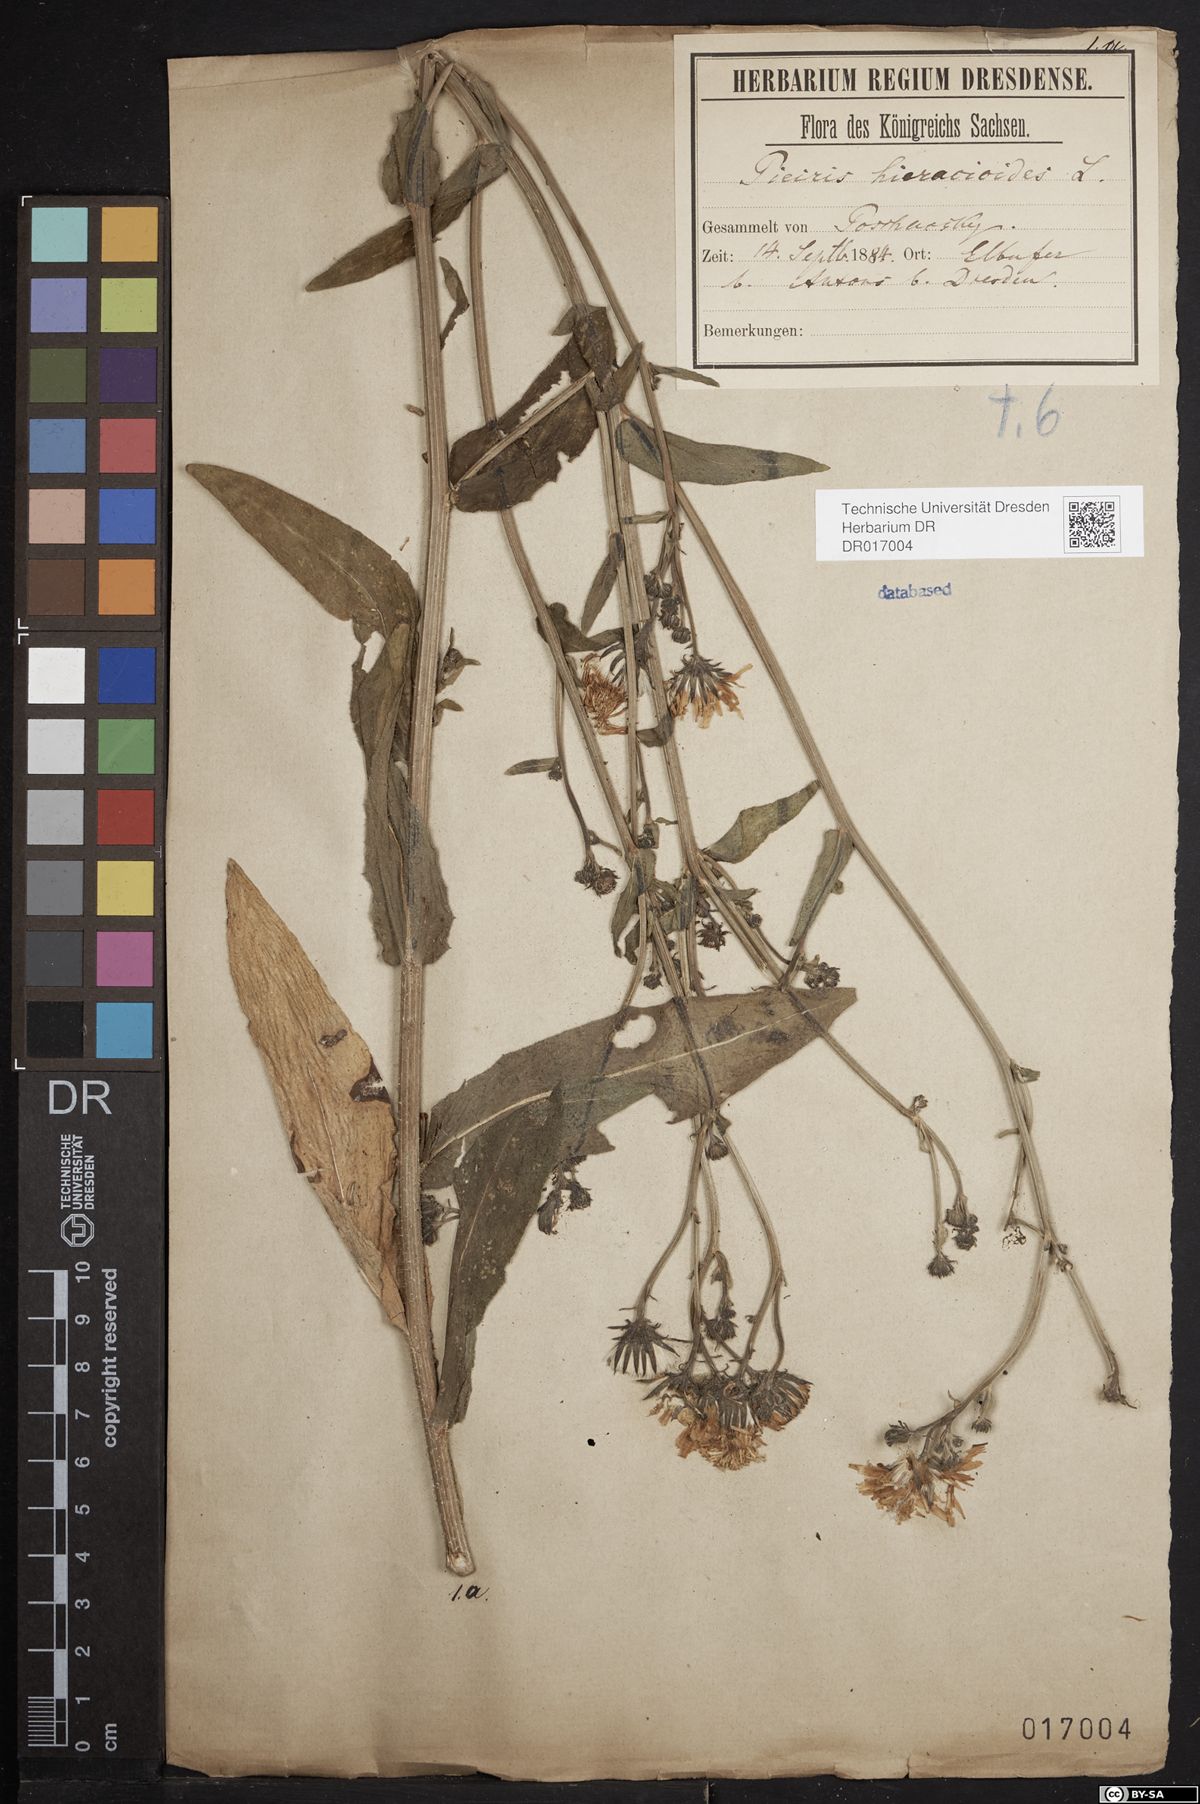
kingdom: Plantae
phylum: Tracheophyta
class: Magnoliopsida
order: Asterales
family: Asteraceae
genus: Picris
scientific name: Picris hieracioides
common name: Hawkweed oxtongue
